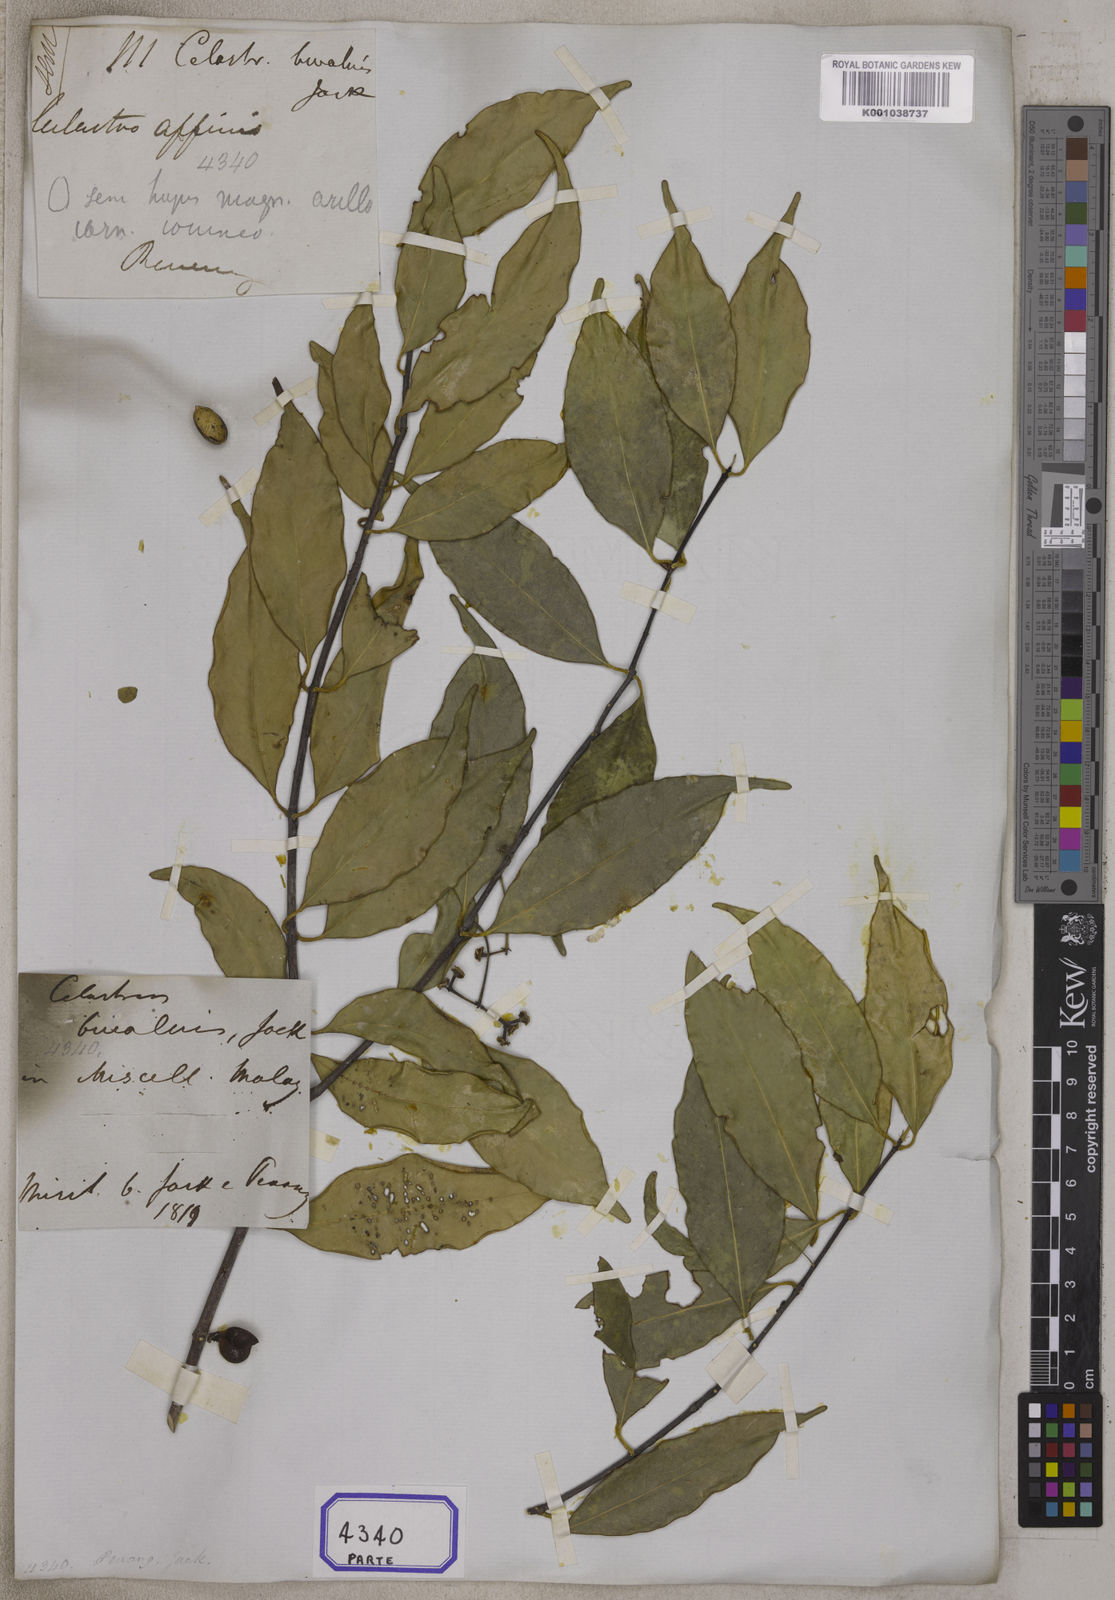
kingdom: Plantae
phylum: Tracheophyta
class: Magnoliopsida
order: Celastrales
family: Celastraceae
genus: Microtropis
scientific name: Microtropis bivalvis
